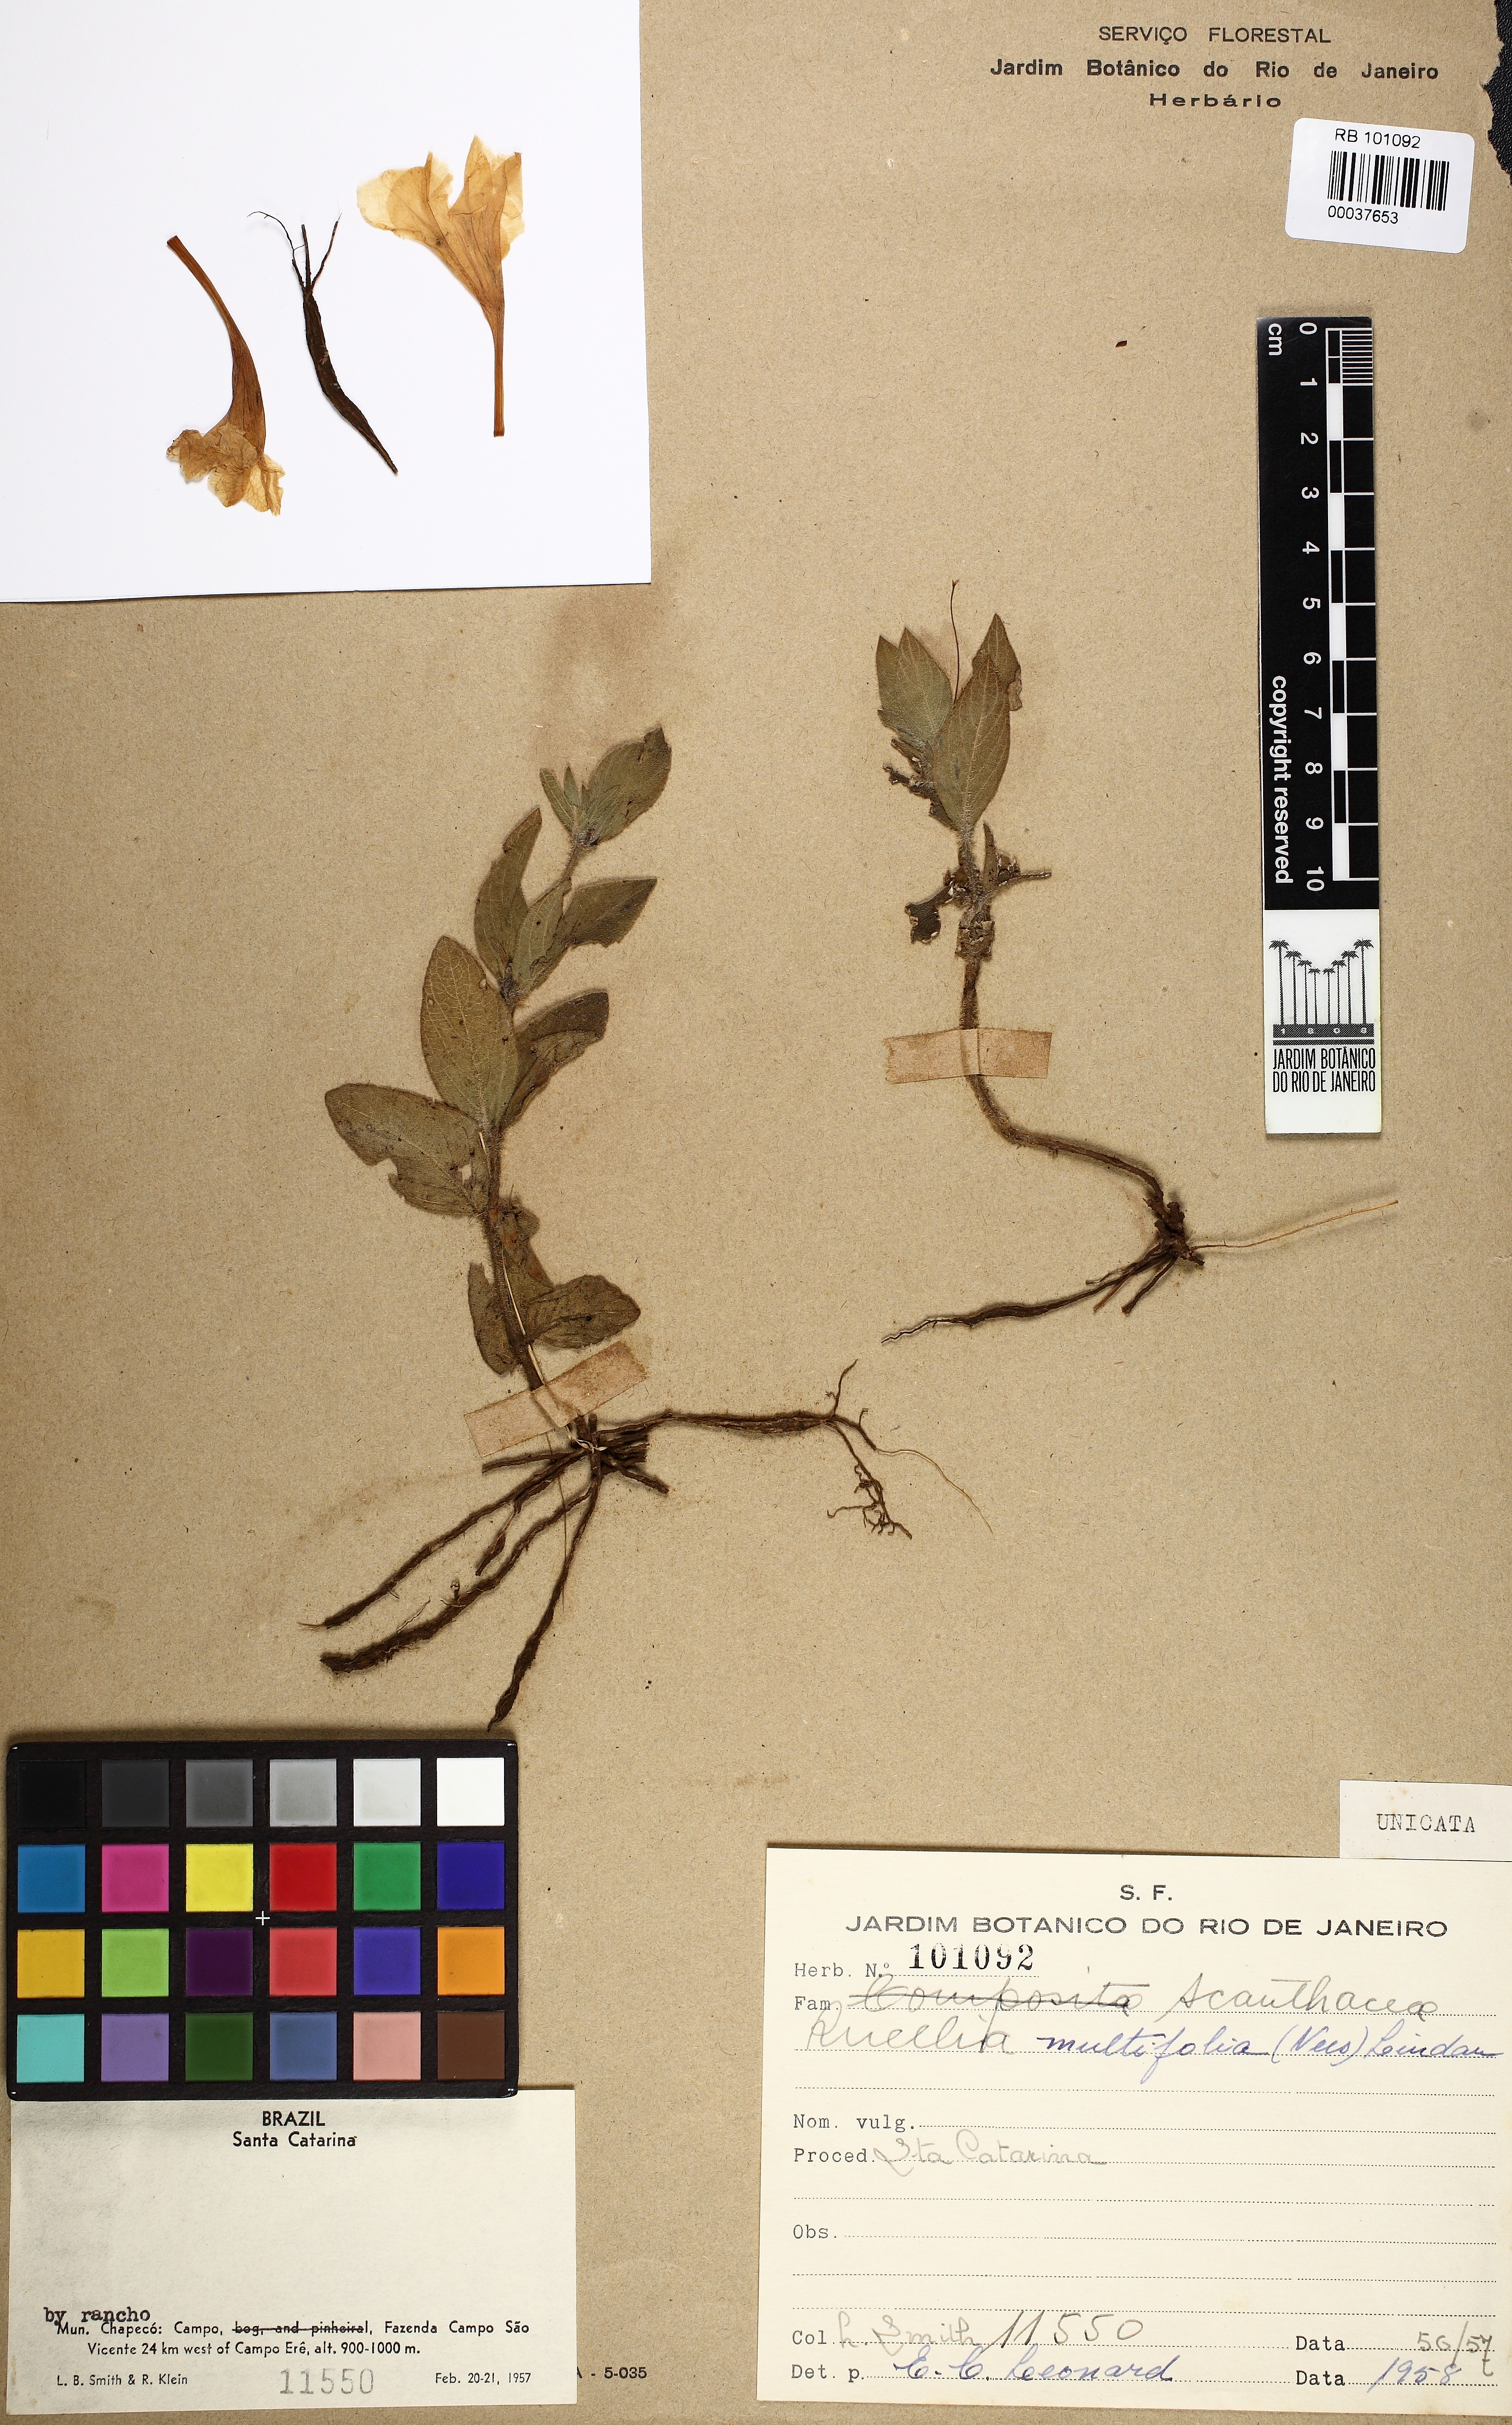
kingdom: Plantae
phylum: Tracheophyta
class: Magnoliopsida
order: Lamiales
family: Acanthaceae
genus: Ruellia
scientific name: Ruellia multifolia
